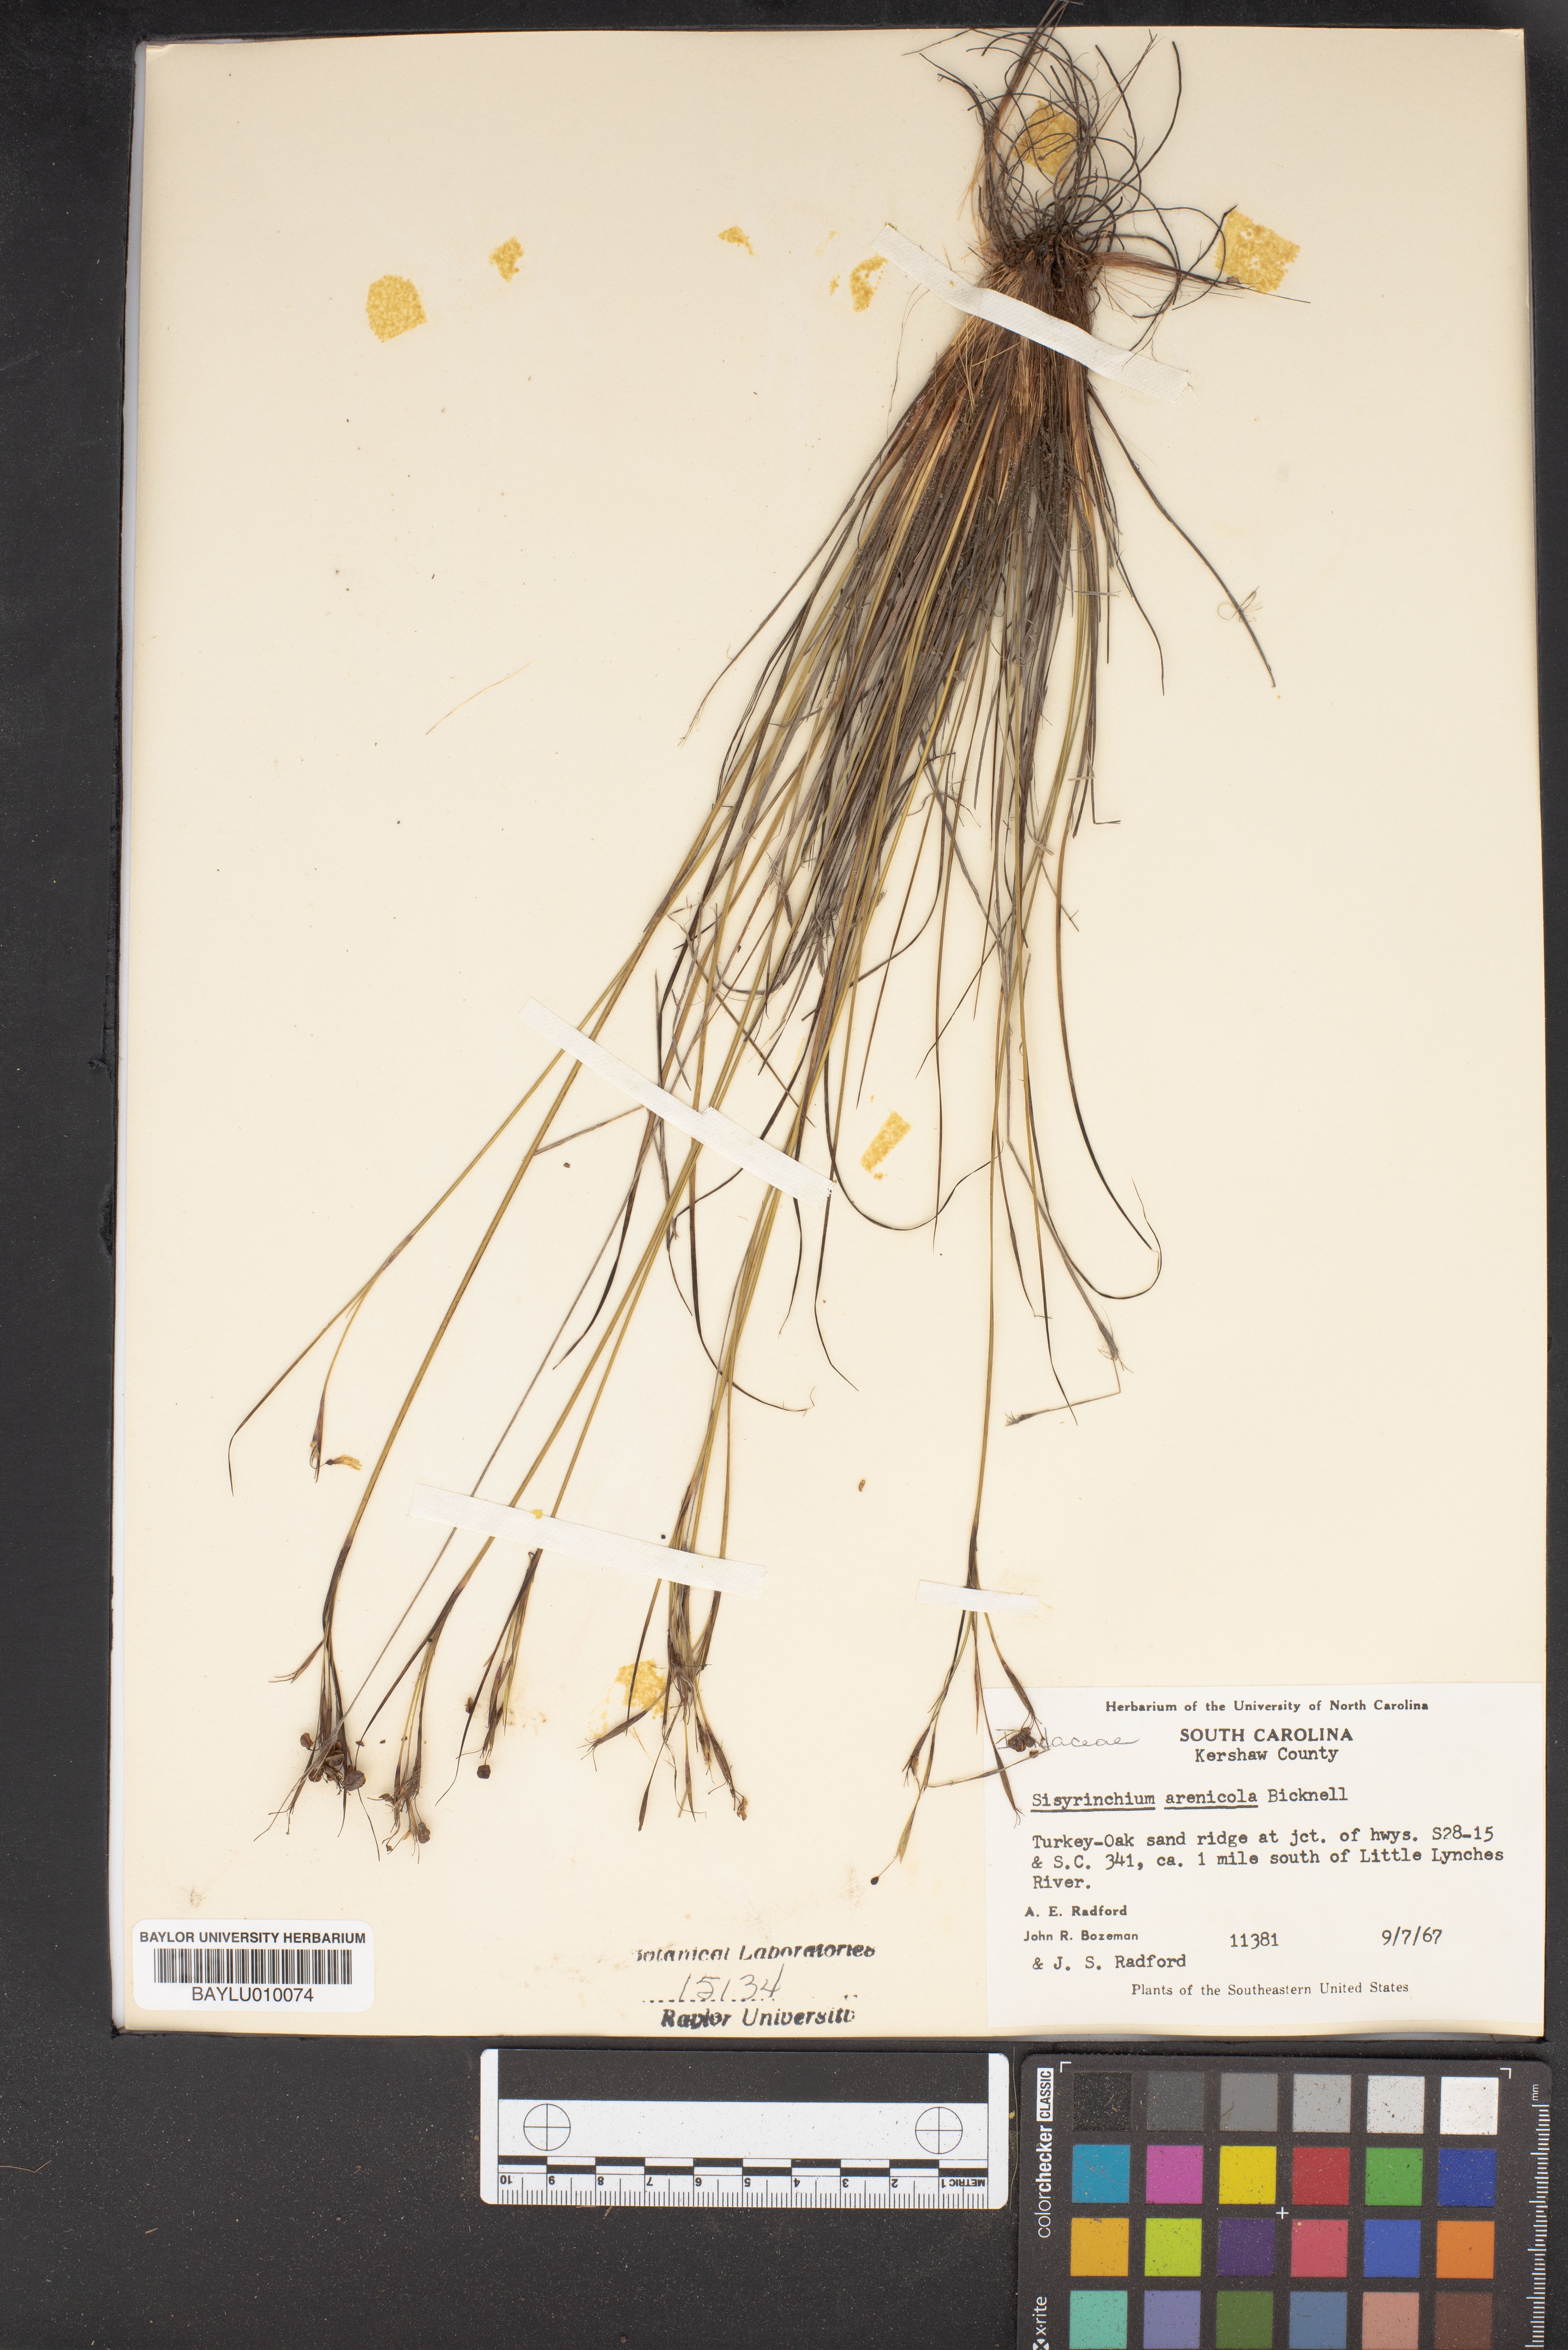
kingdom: Plantae
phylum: Tracheophyta
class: Liliopsida
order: Asparagales
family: Iridaceae
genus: Sisyrinchium
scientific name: Sisyrinchium fuscatum
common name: Coastal plain blue-eyed-grass
